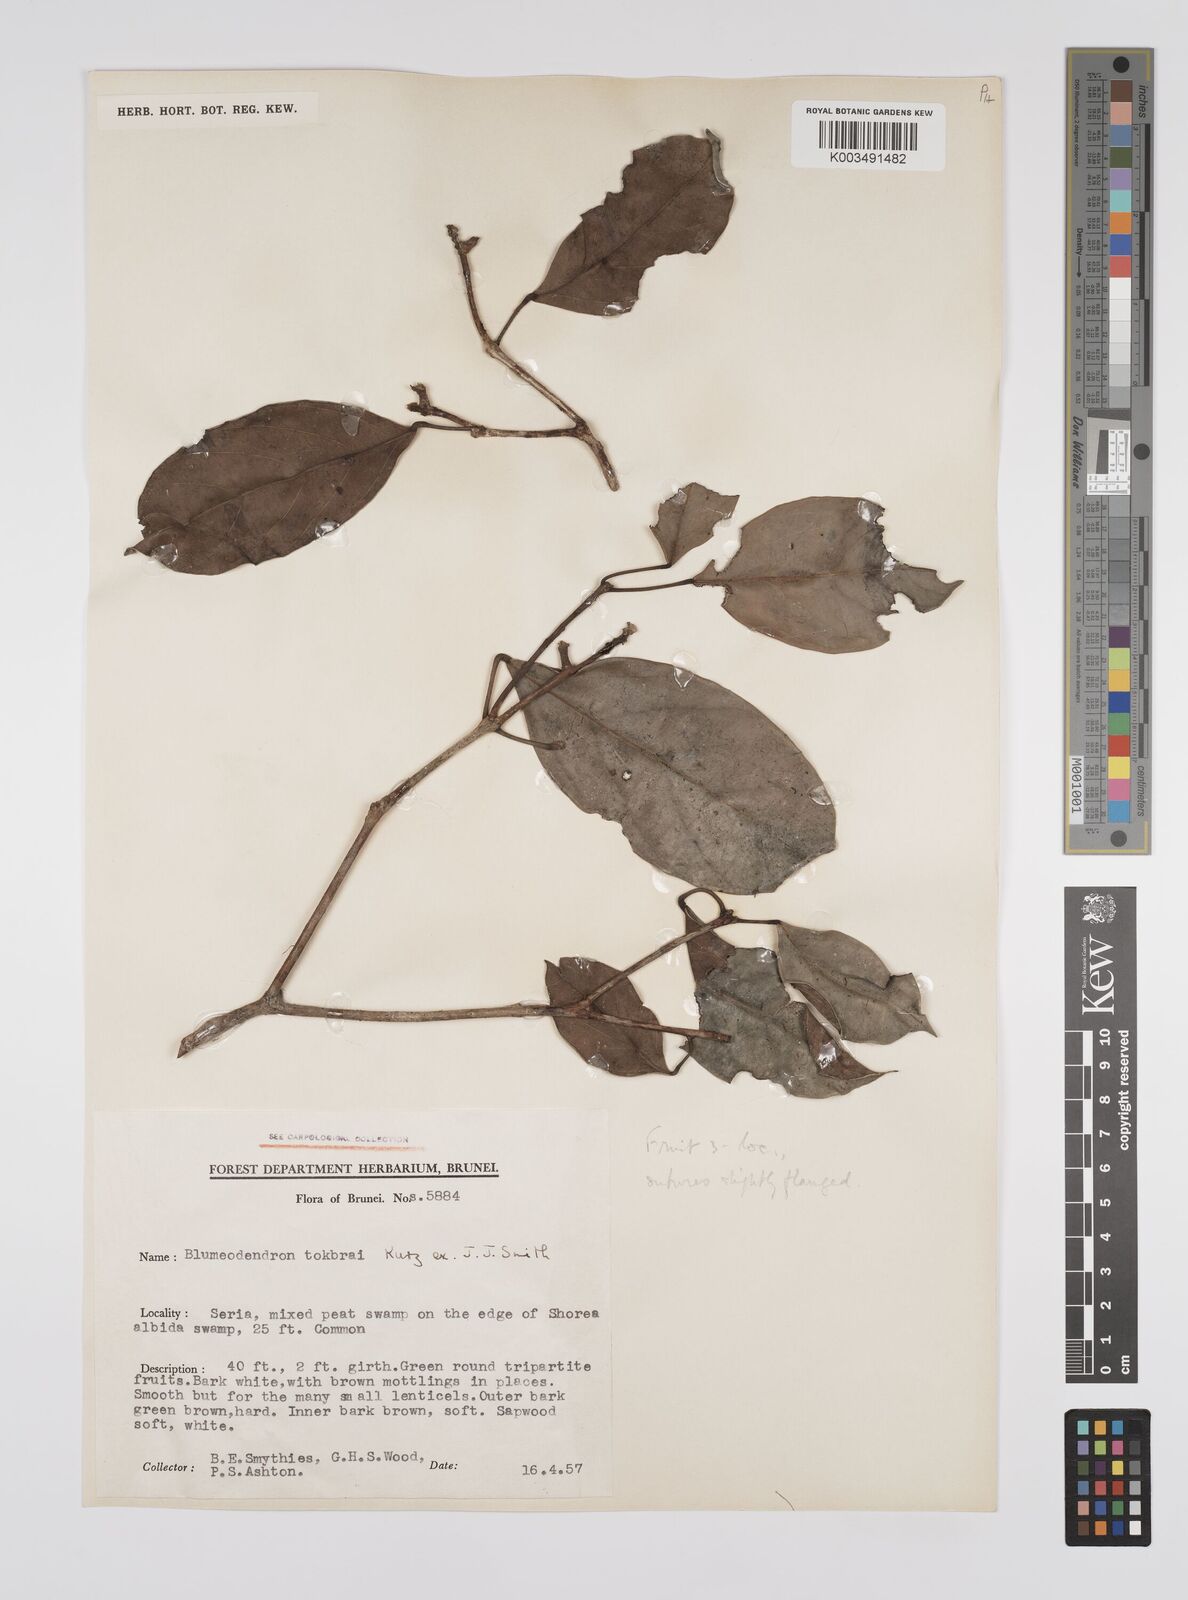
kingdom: Plantae
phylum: Tracheophyta
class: Magnoliopsida
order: Malpighiales
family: Euphorbiaceae
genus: Blumeodendron
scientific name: Blumeodendron tokbrai
